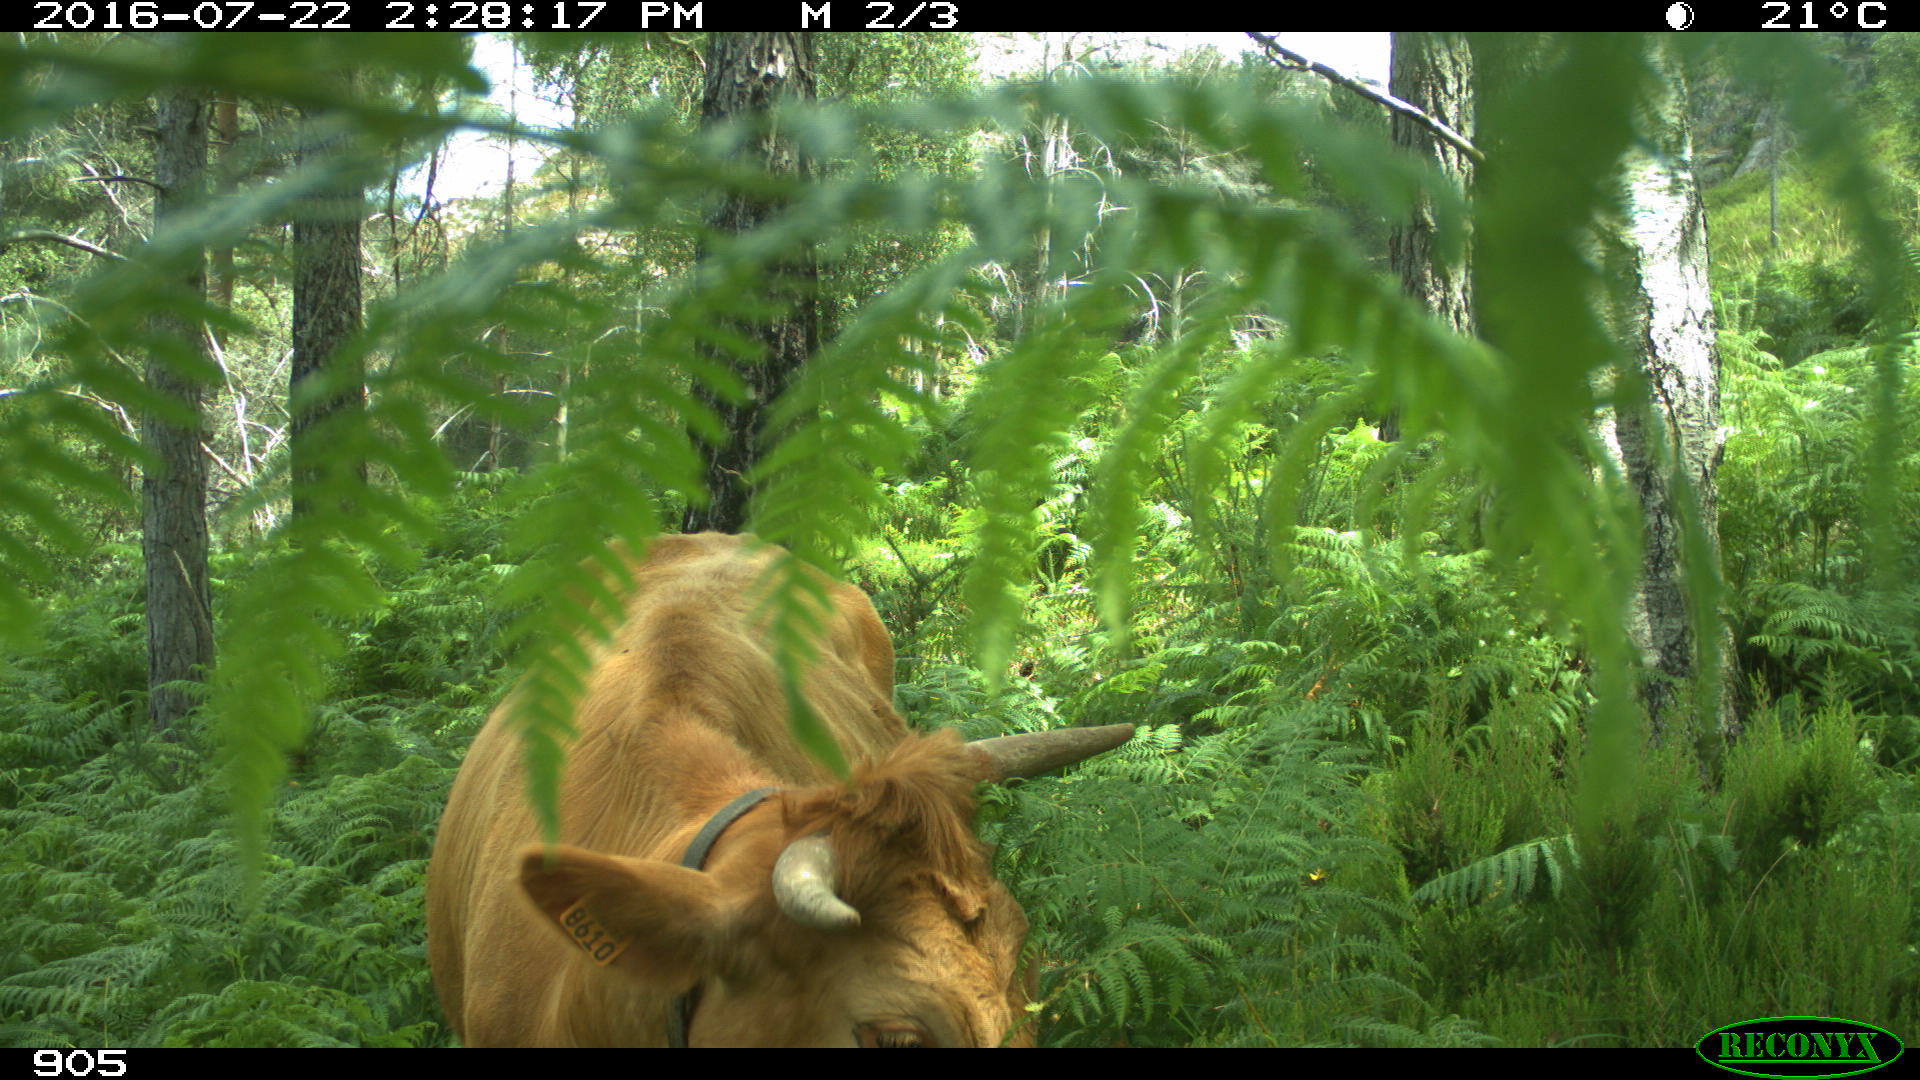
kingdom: Animalia
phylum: Chordata
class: Mammalia
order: Artiodactyla
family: Bovidae
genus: Bos
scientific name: Bos taurus
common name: Domesticated cattle
